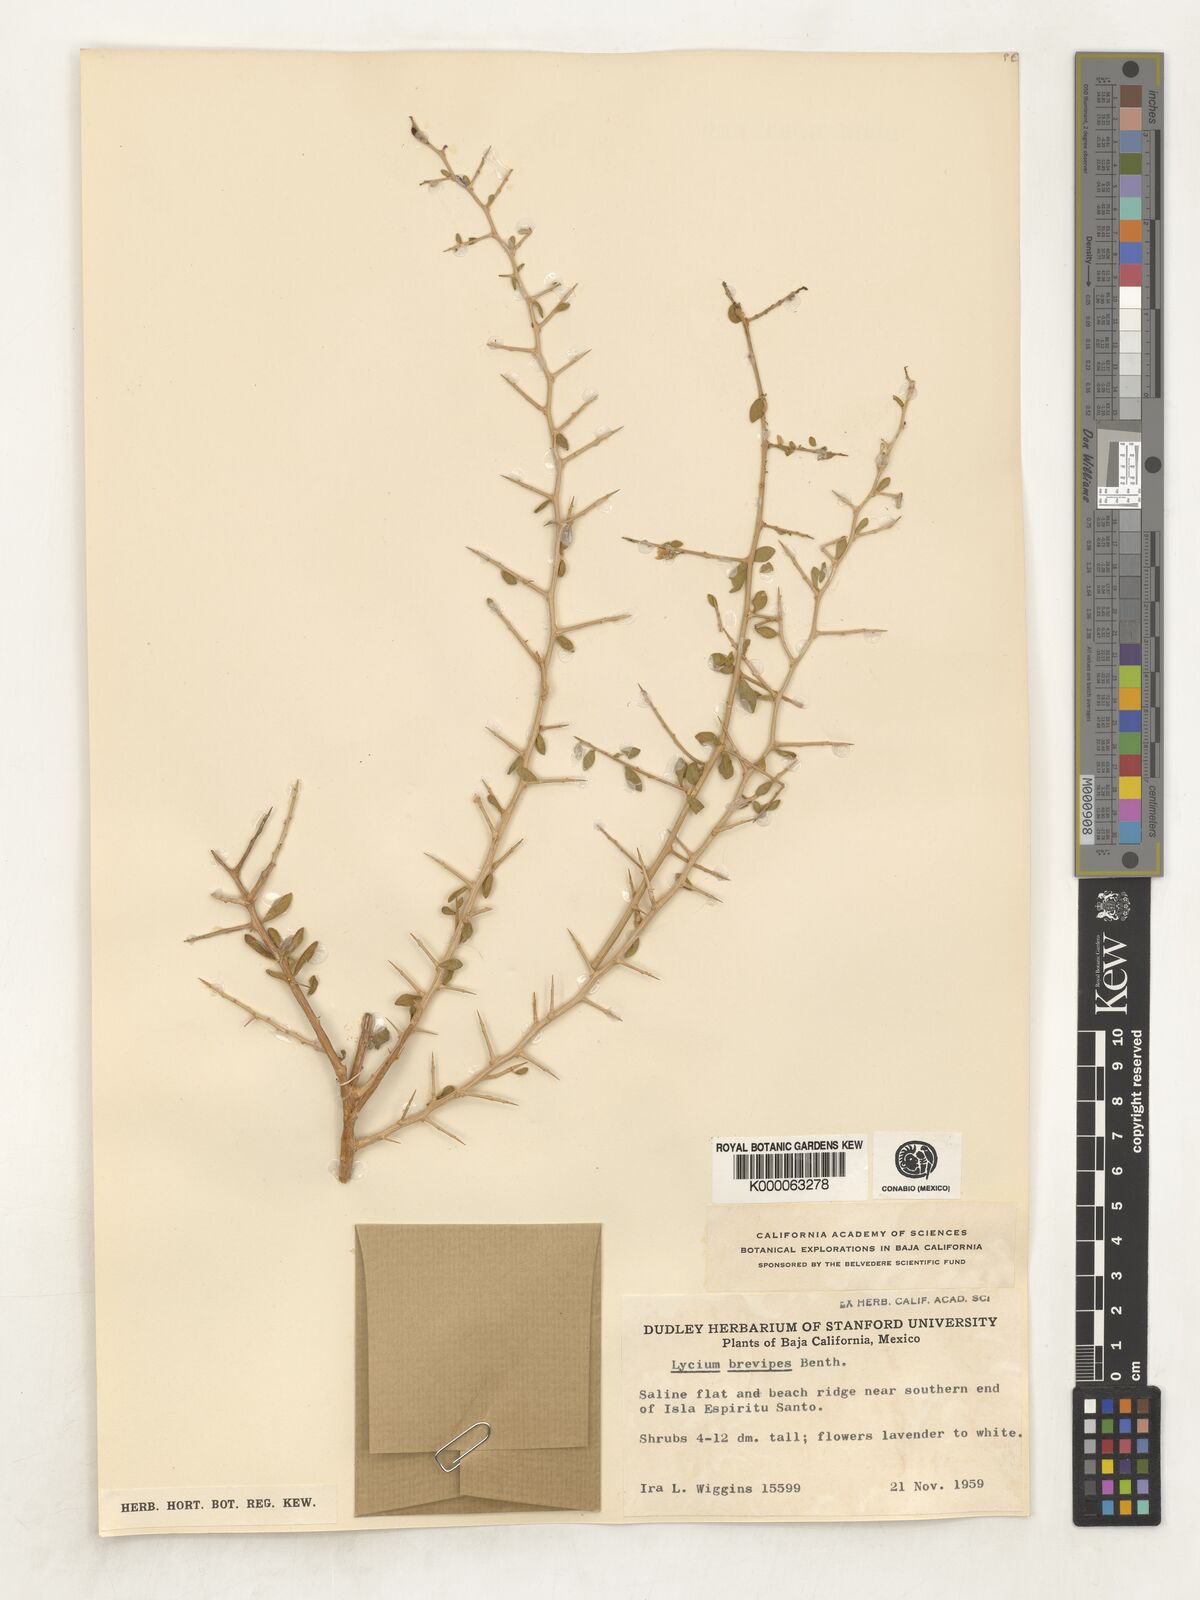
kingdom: Plantae
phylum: Tracheophyta
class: Magnoliopsida
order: Solanales
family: Solanaceae
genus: Lycium
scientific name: Lycium brevipes
